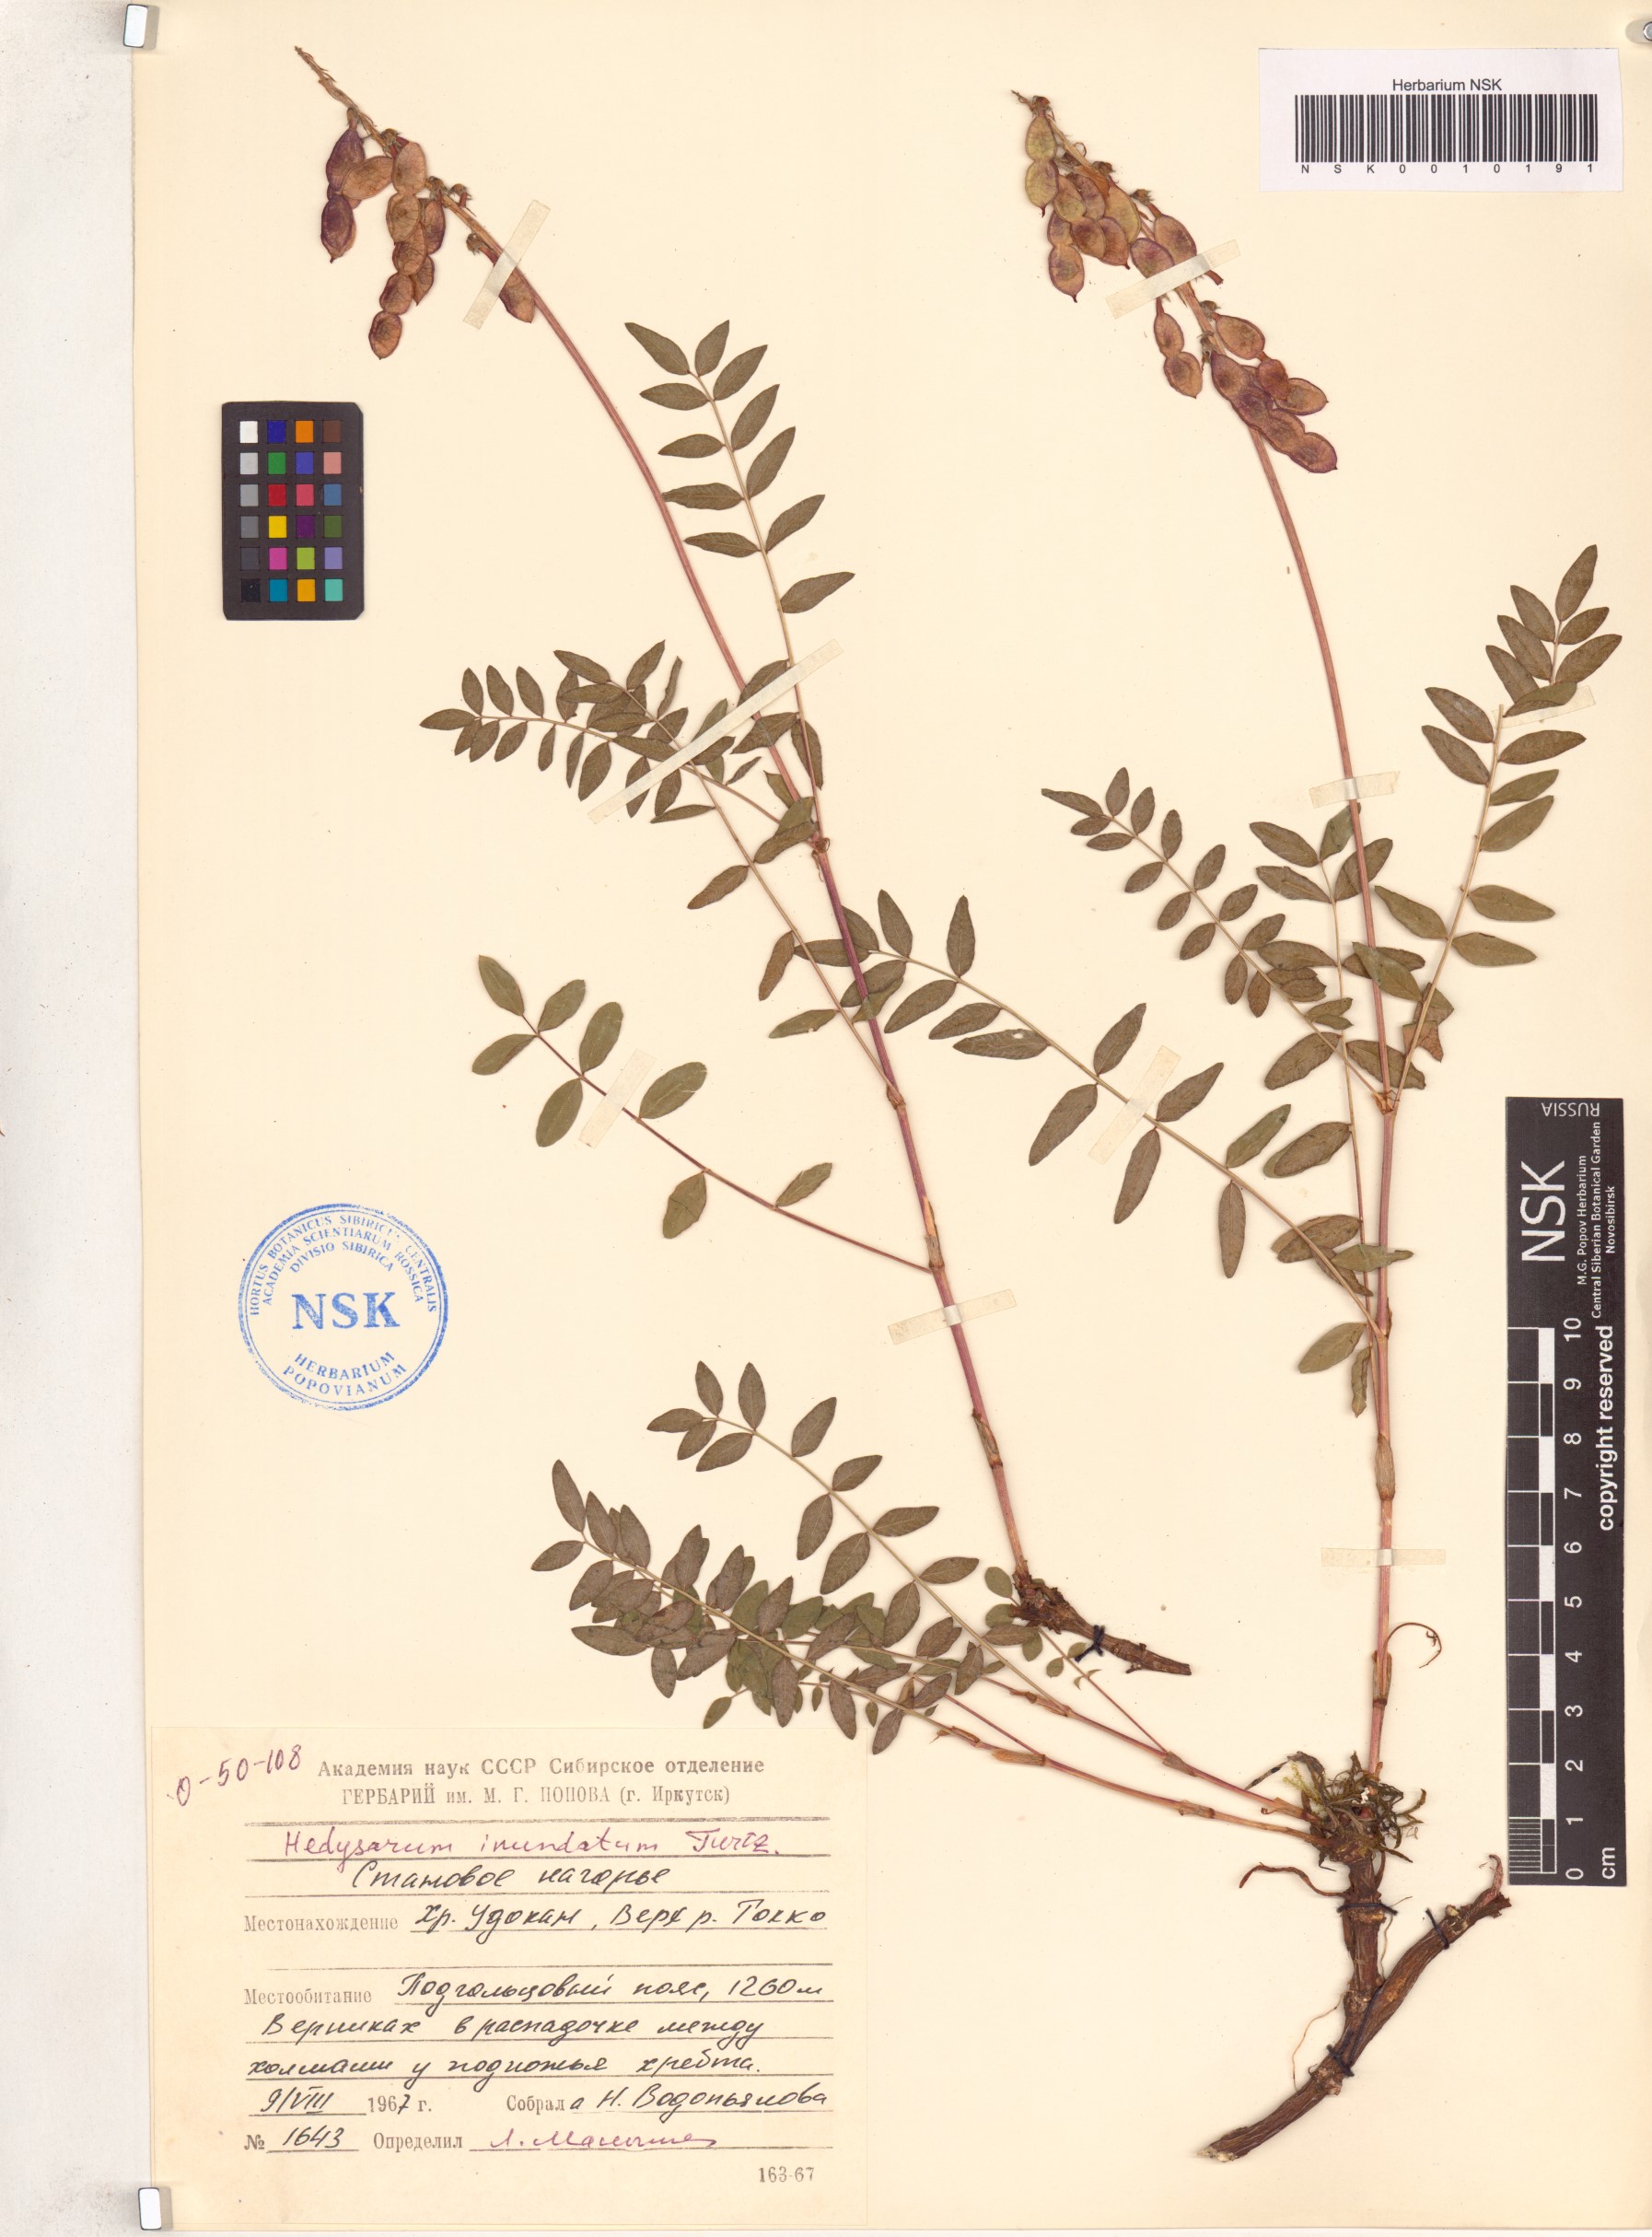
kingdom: Plantae
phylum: Tracheophyta
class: Magnoliopsida
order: Fabales
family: Fabaceae
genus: Hedysarum
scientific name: Hedysarum inundatum
